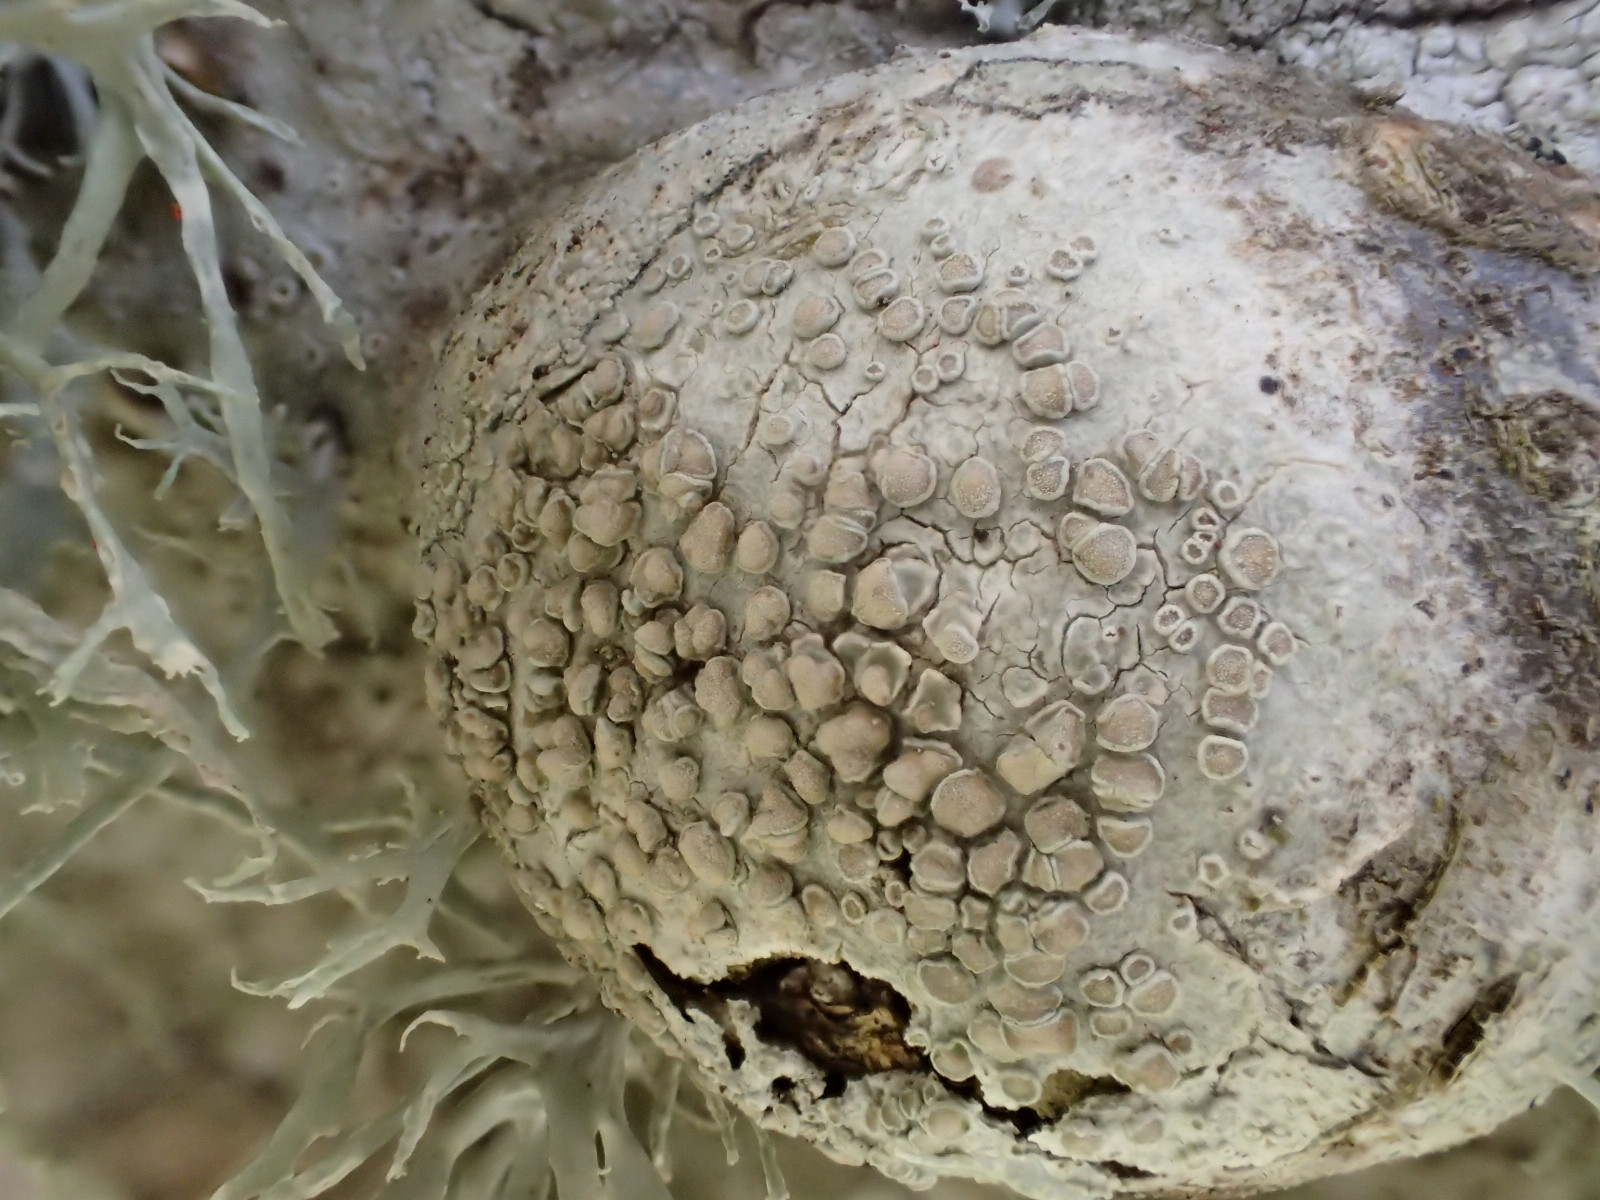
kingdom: Fungi
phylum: Ascomycota
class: Lecanoromycetes
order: Lecanorales
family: Lecanoraceae
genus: Glaucomaria
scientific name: Glaucomaria carpinea
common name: hviddugget kantskivelav
